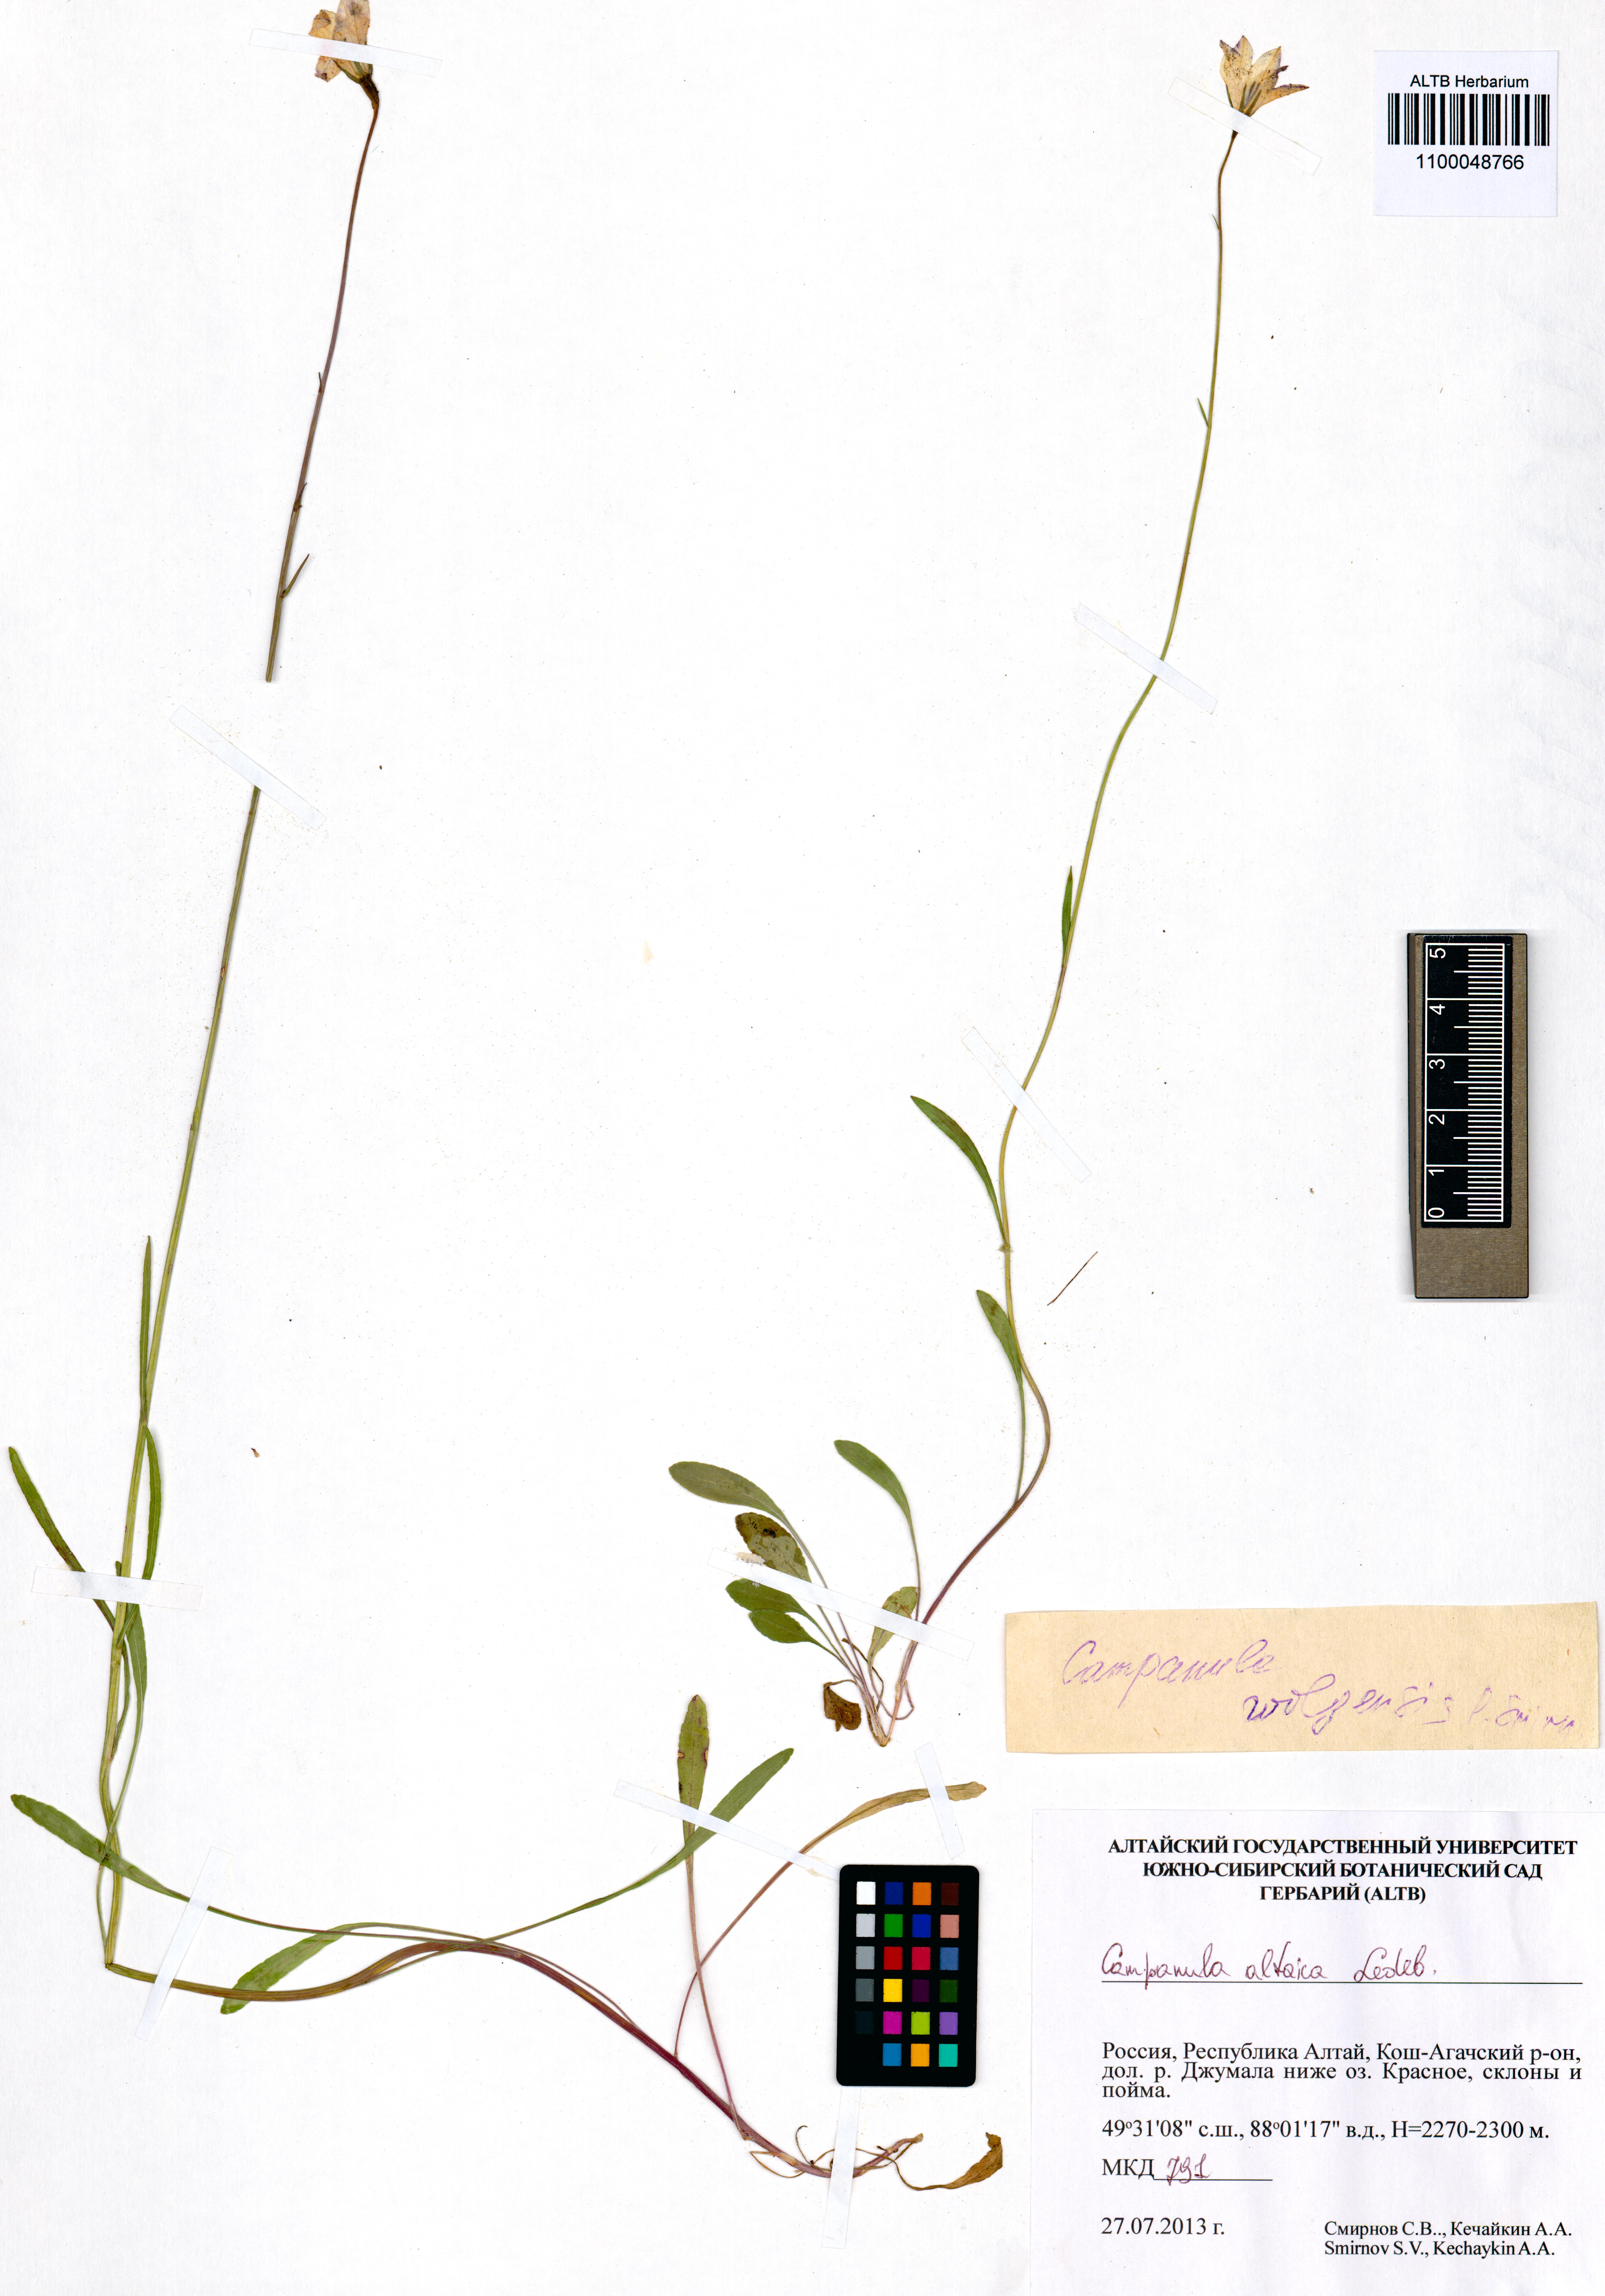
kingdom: Plantae
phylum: Tracheophyta
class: Magnoliopsida
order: Asterales
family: Campanulaceae
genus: Campanula
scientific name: Campanula stevenii
